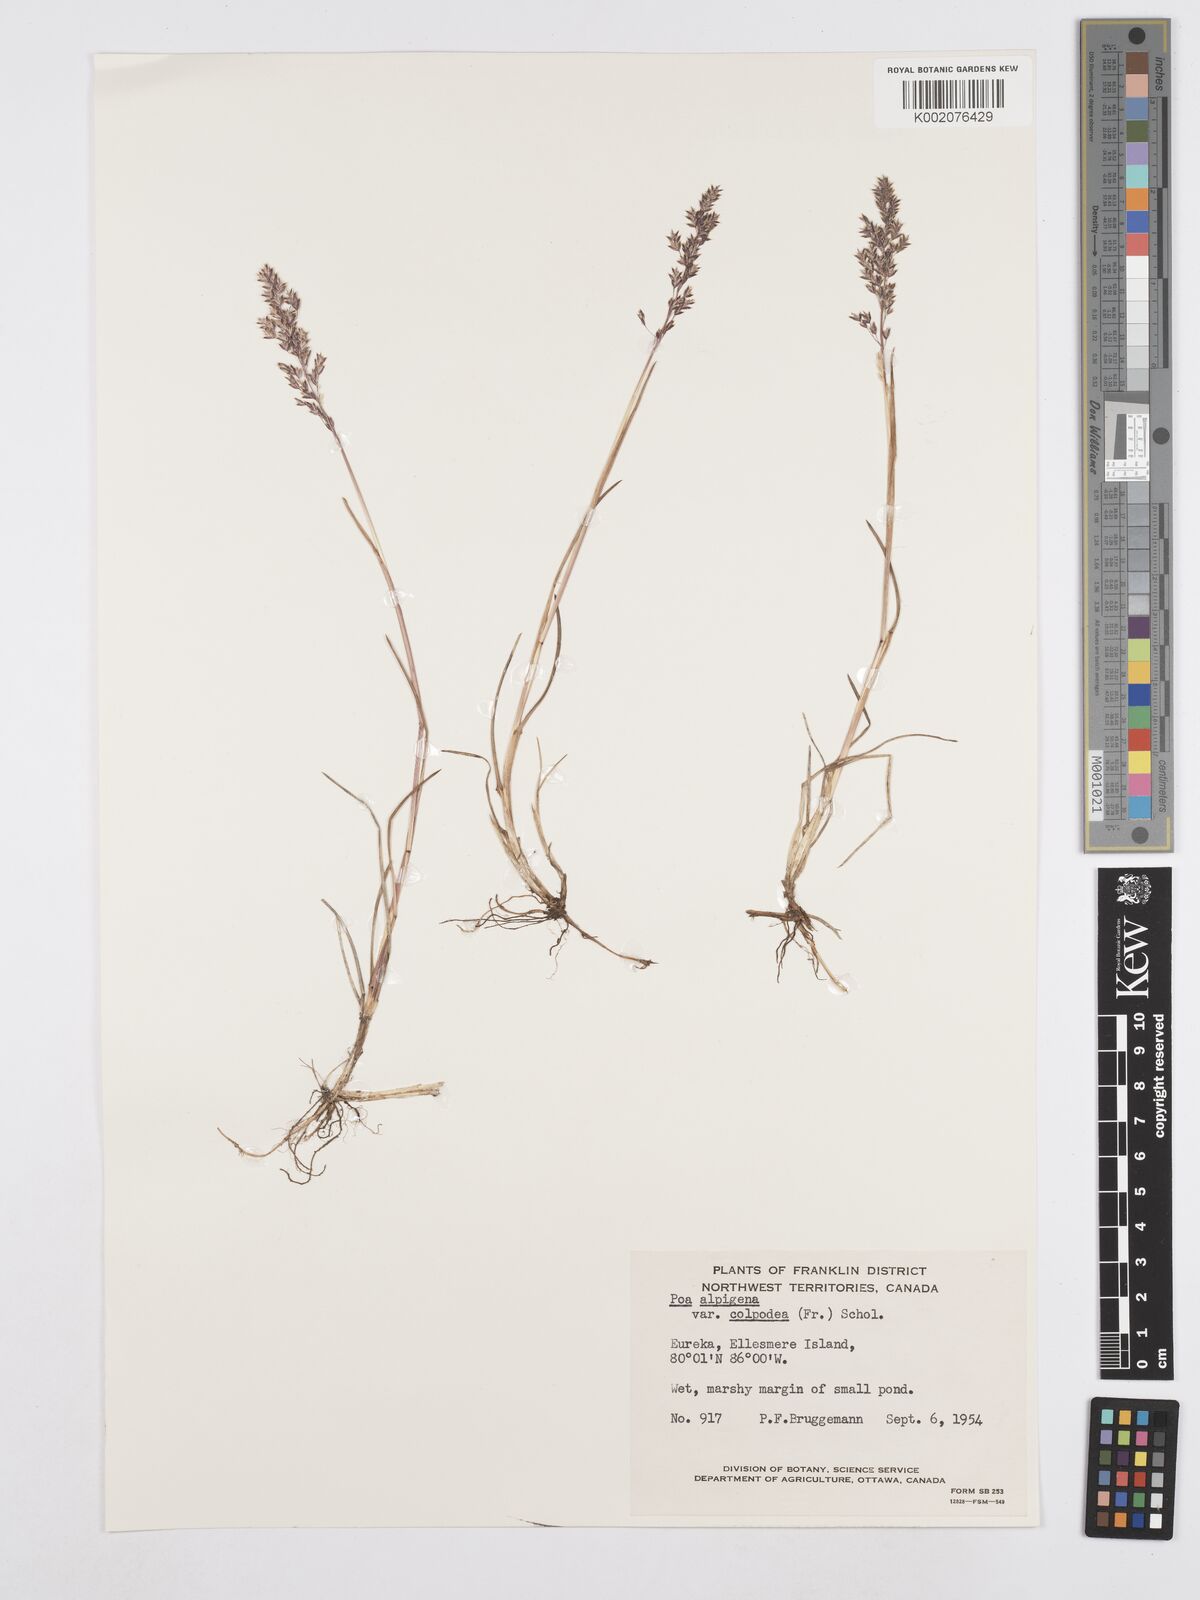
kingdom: Plantae
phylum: Tracheophyta
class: Liliopsida
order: Poales
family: Poaceae
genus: Poa
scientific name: Poa lindebergii
